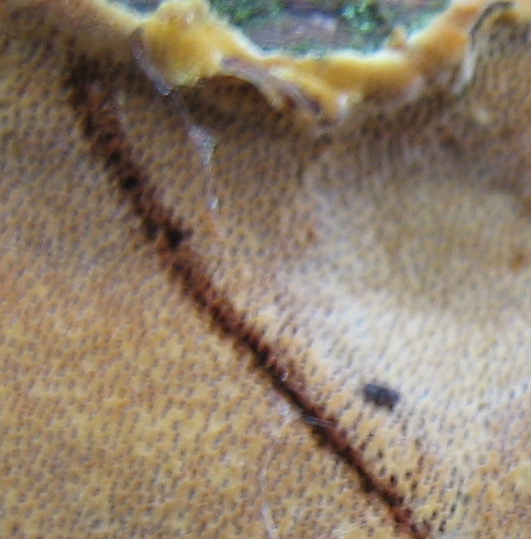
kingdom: Fungi
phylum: Basidiomycota
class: Agaricomycetes
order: Hymenochaetales
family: Hymenochaetaceae
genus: Fuscoporia
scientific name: Fuscoporia ferrea
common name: skorpe-ildporesvamp
